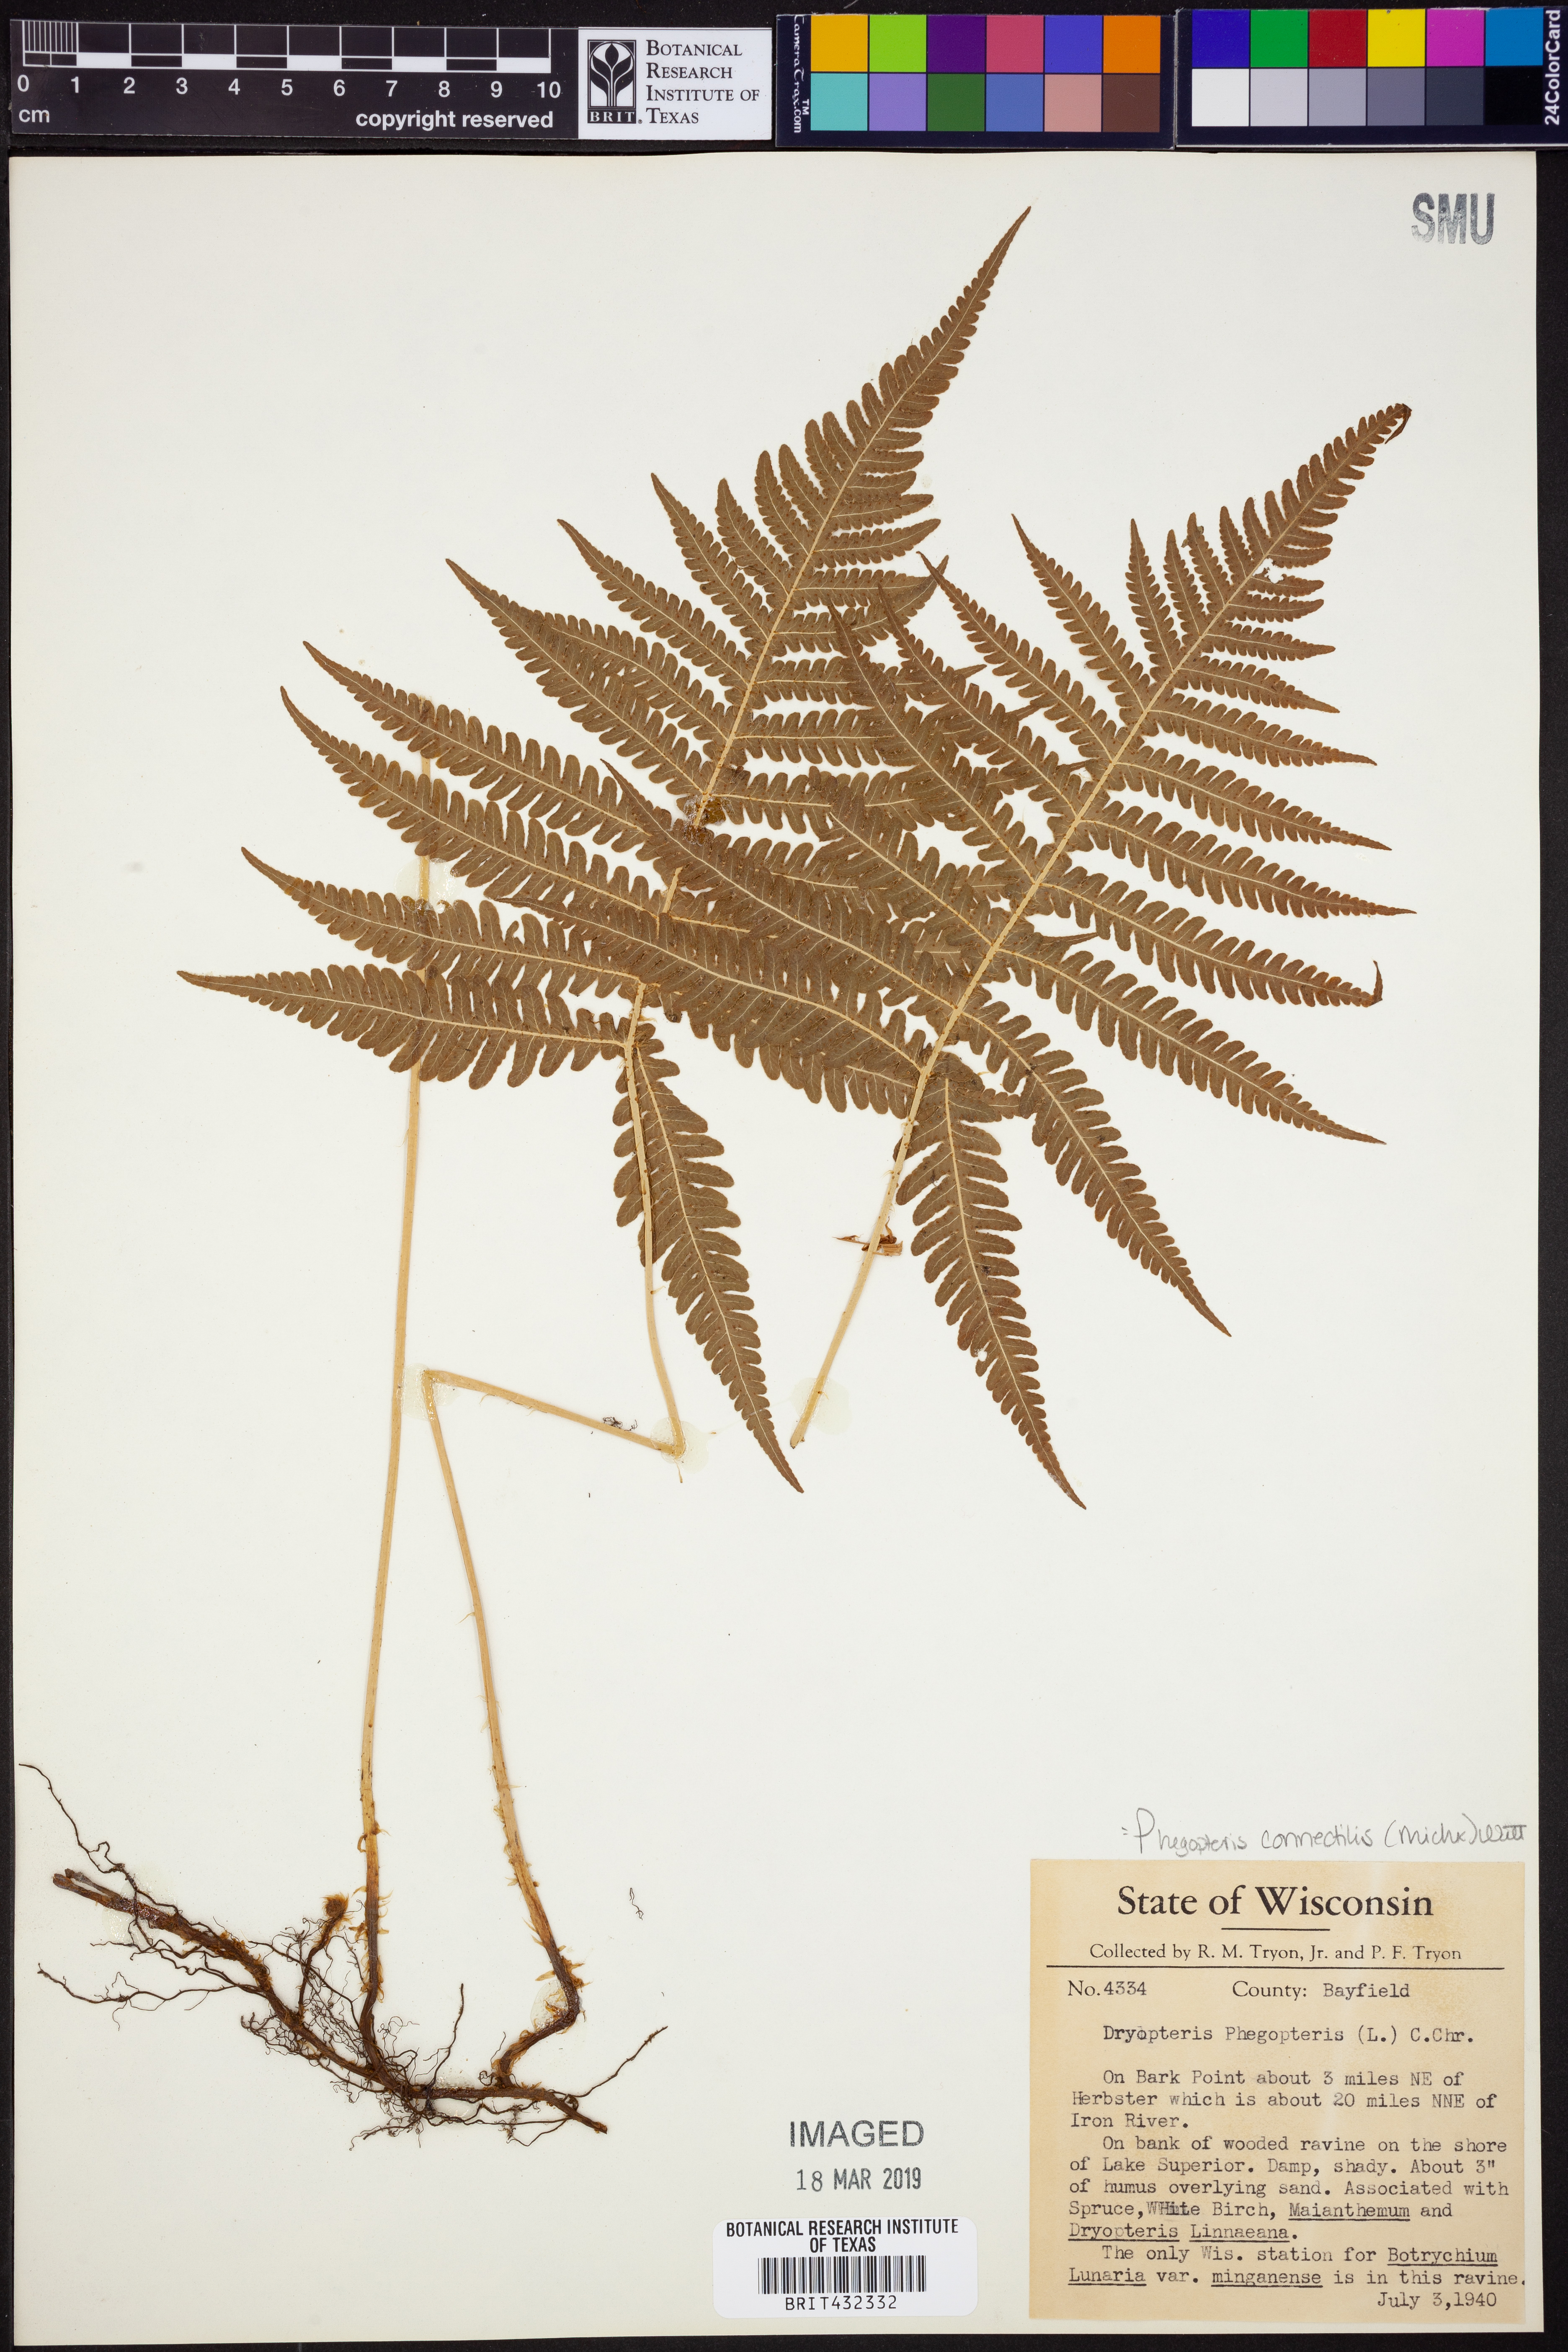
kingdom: Plantae
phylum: Tracheophyta
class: Polypodiopsida
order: Polypodiales
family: Thelypteridaceae
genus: Phegopteris
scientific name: Phegopteris connectilis
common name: Beech fern
